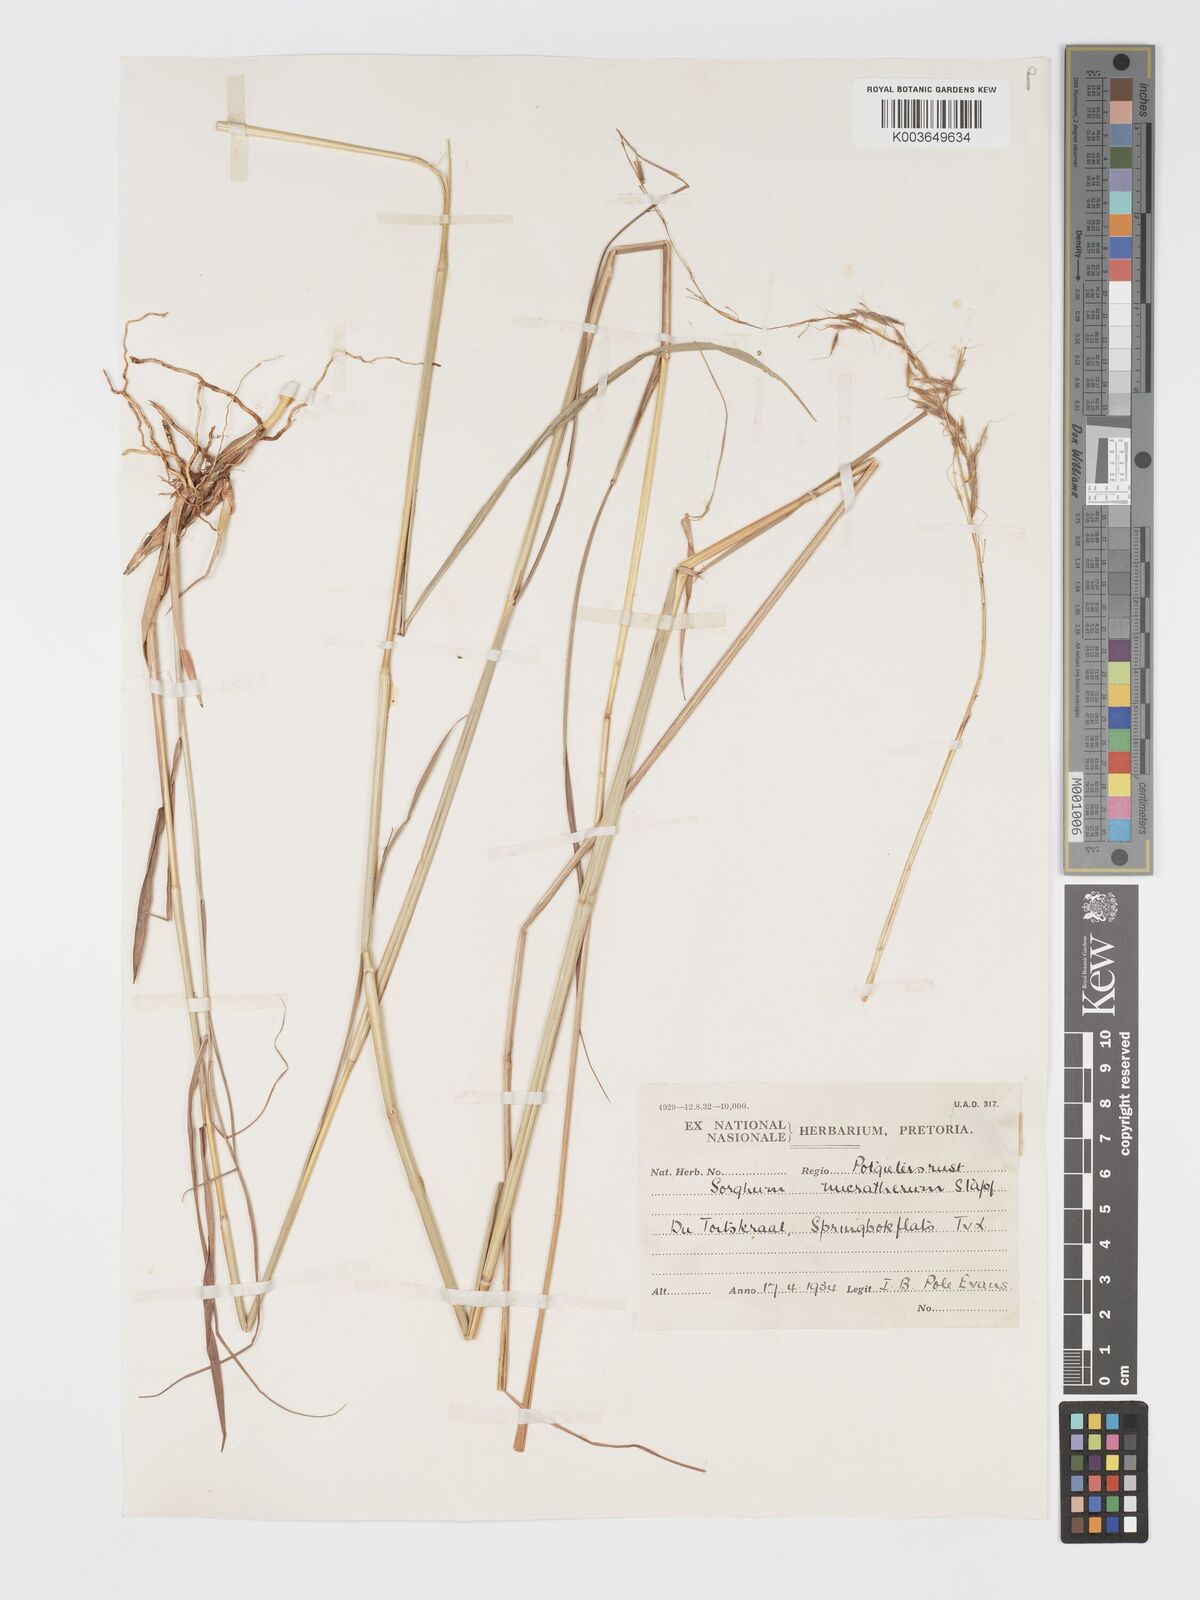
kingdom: Plantae
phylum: Tracheophyta
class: Liliopsida
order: Poales
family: Poaceae
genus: Sorghastrum
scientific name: Sorghastrum nudipes
